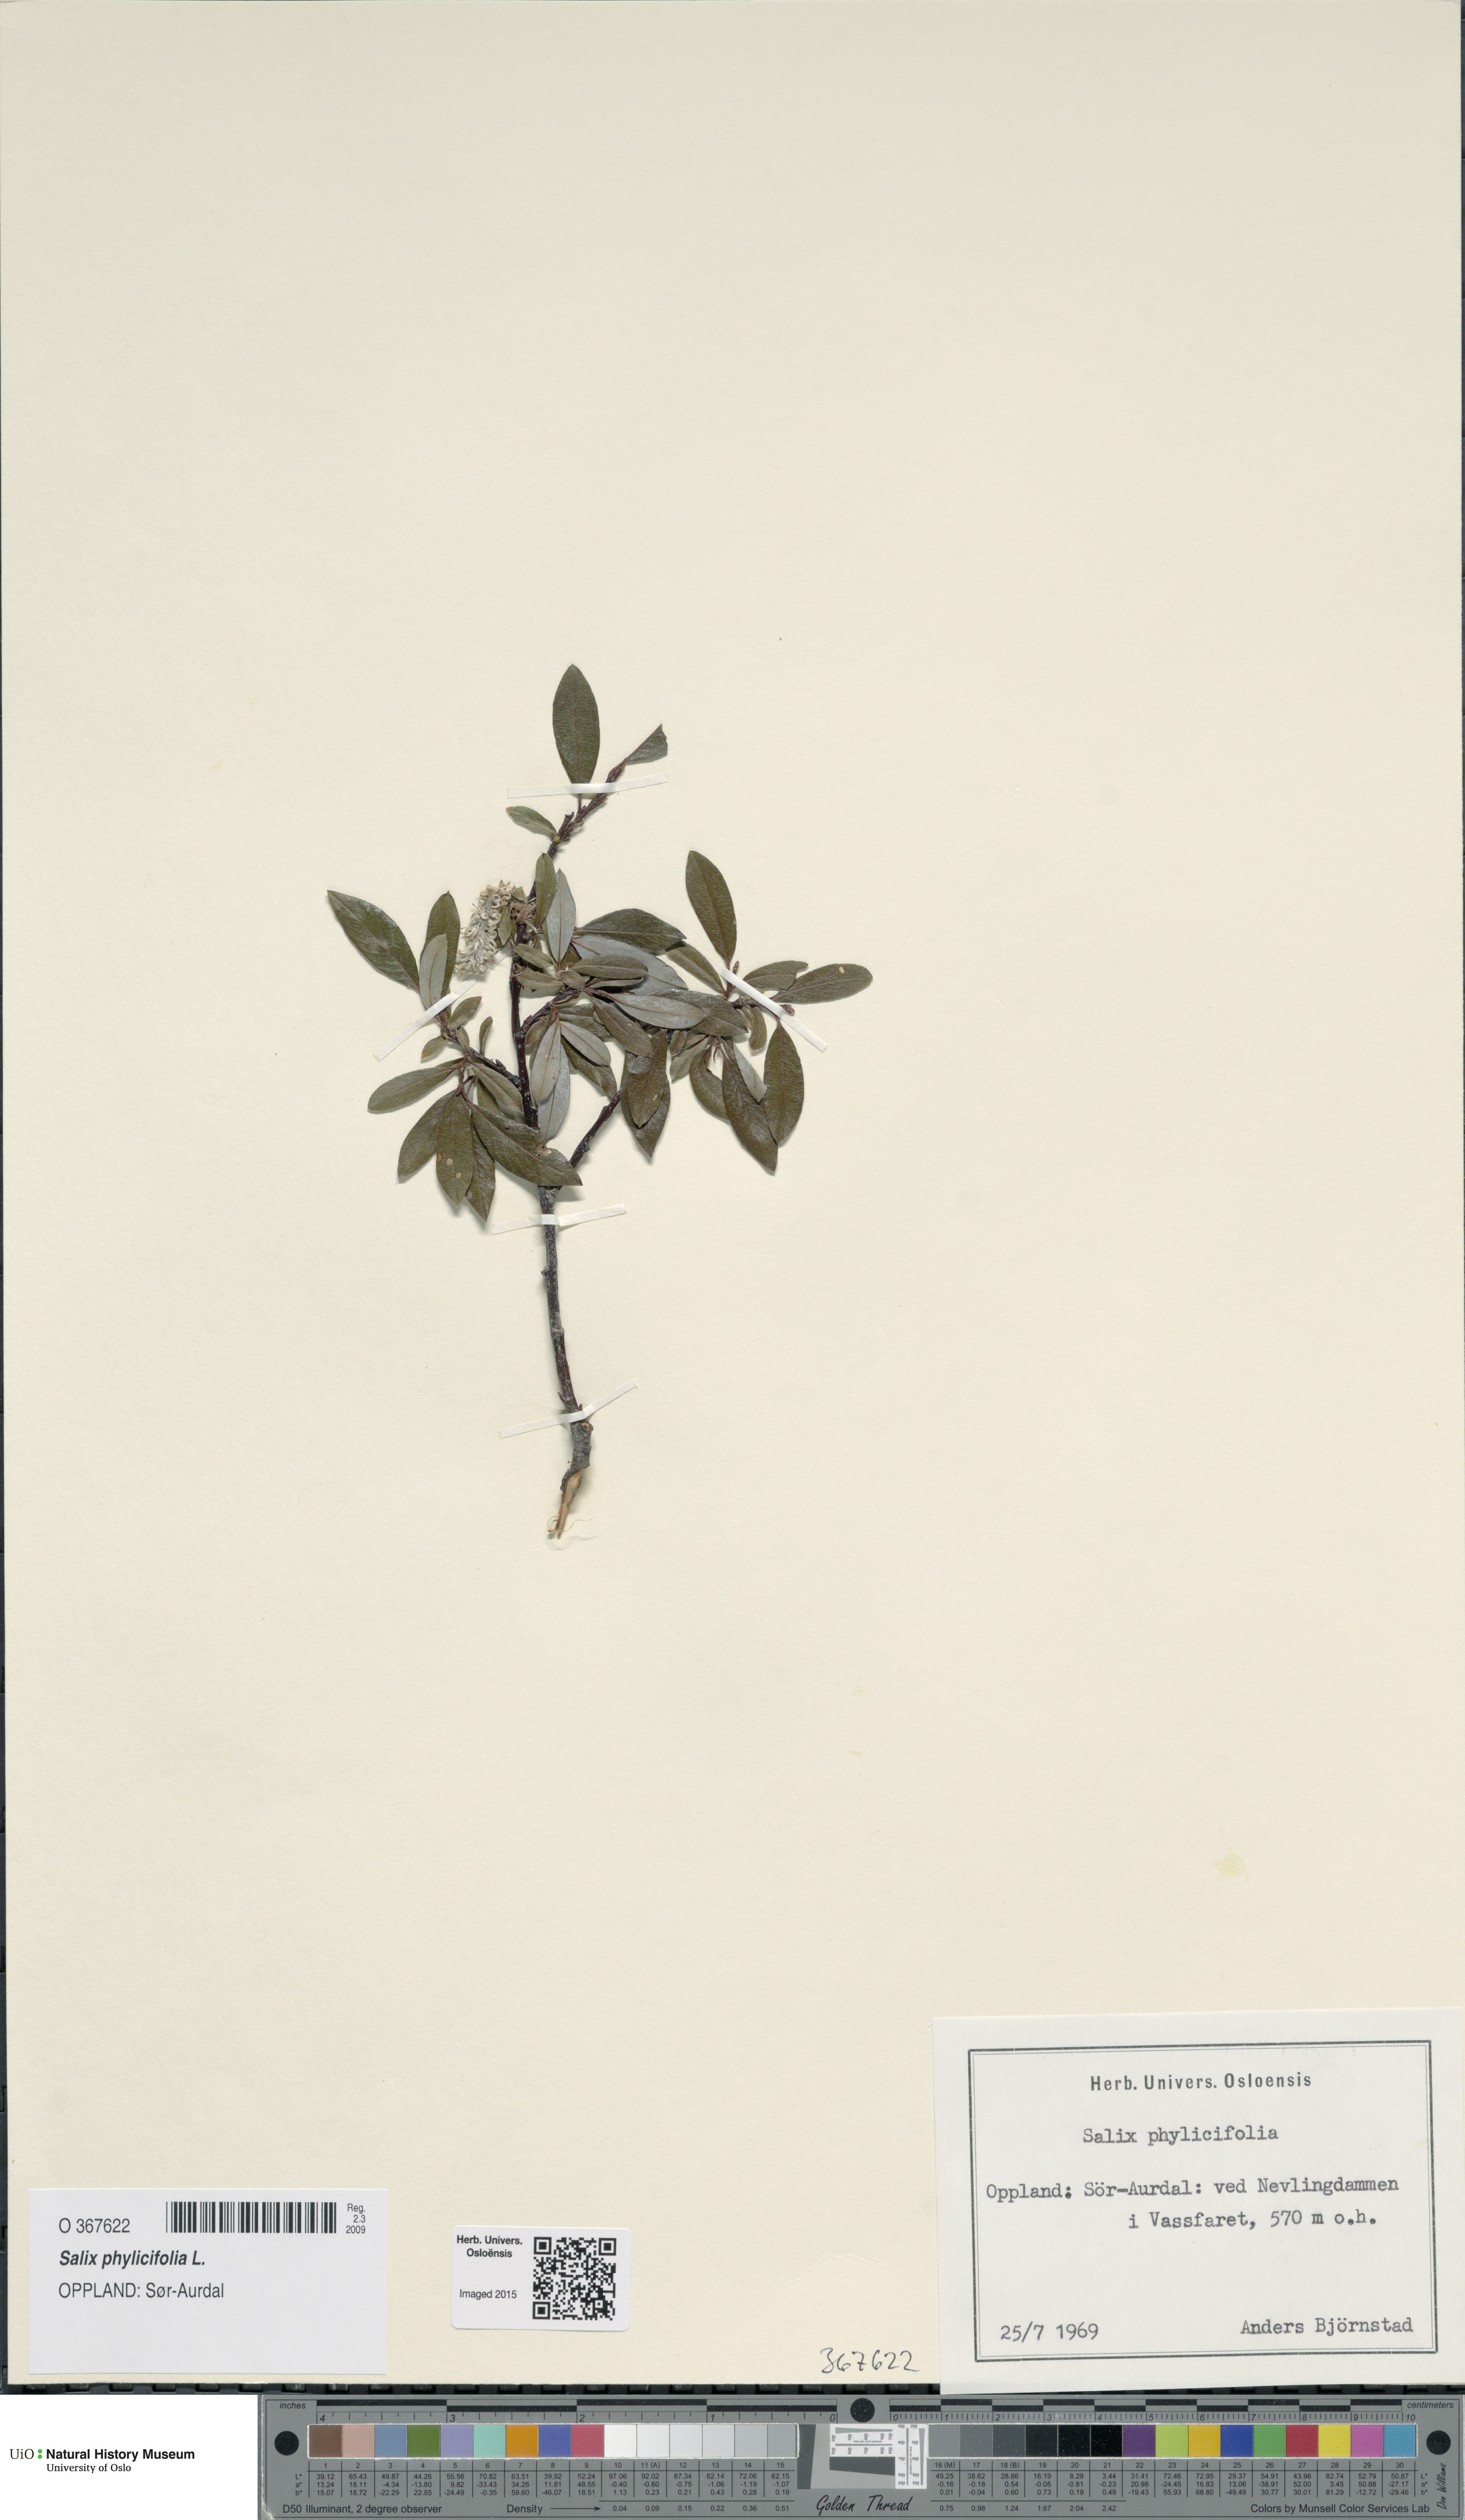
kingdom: Plantae
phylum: Tracheophyta
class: Magnoliopsida
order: Malpighiales
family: Salicaceae
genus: Salix
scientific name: Salix phylicifolia
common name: Tea-leaved willow
